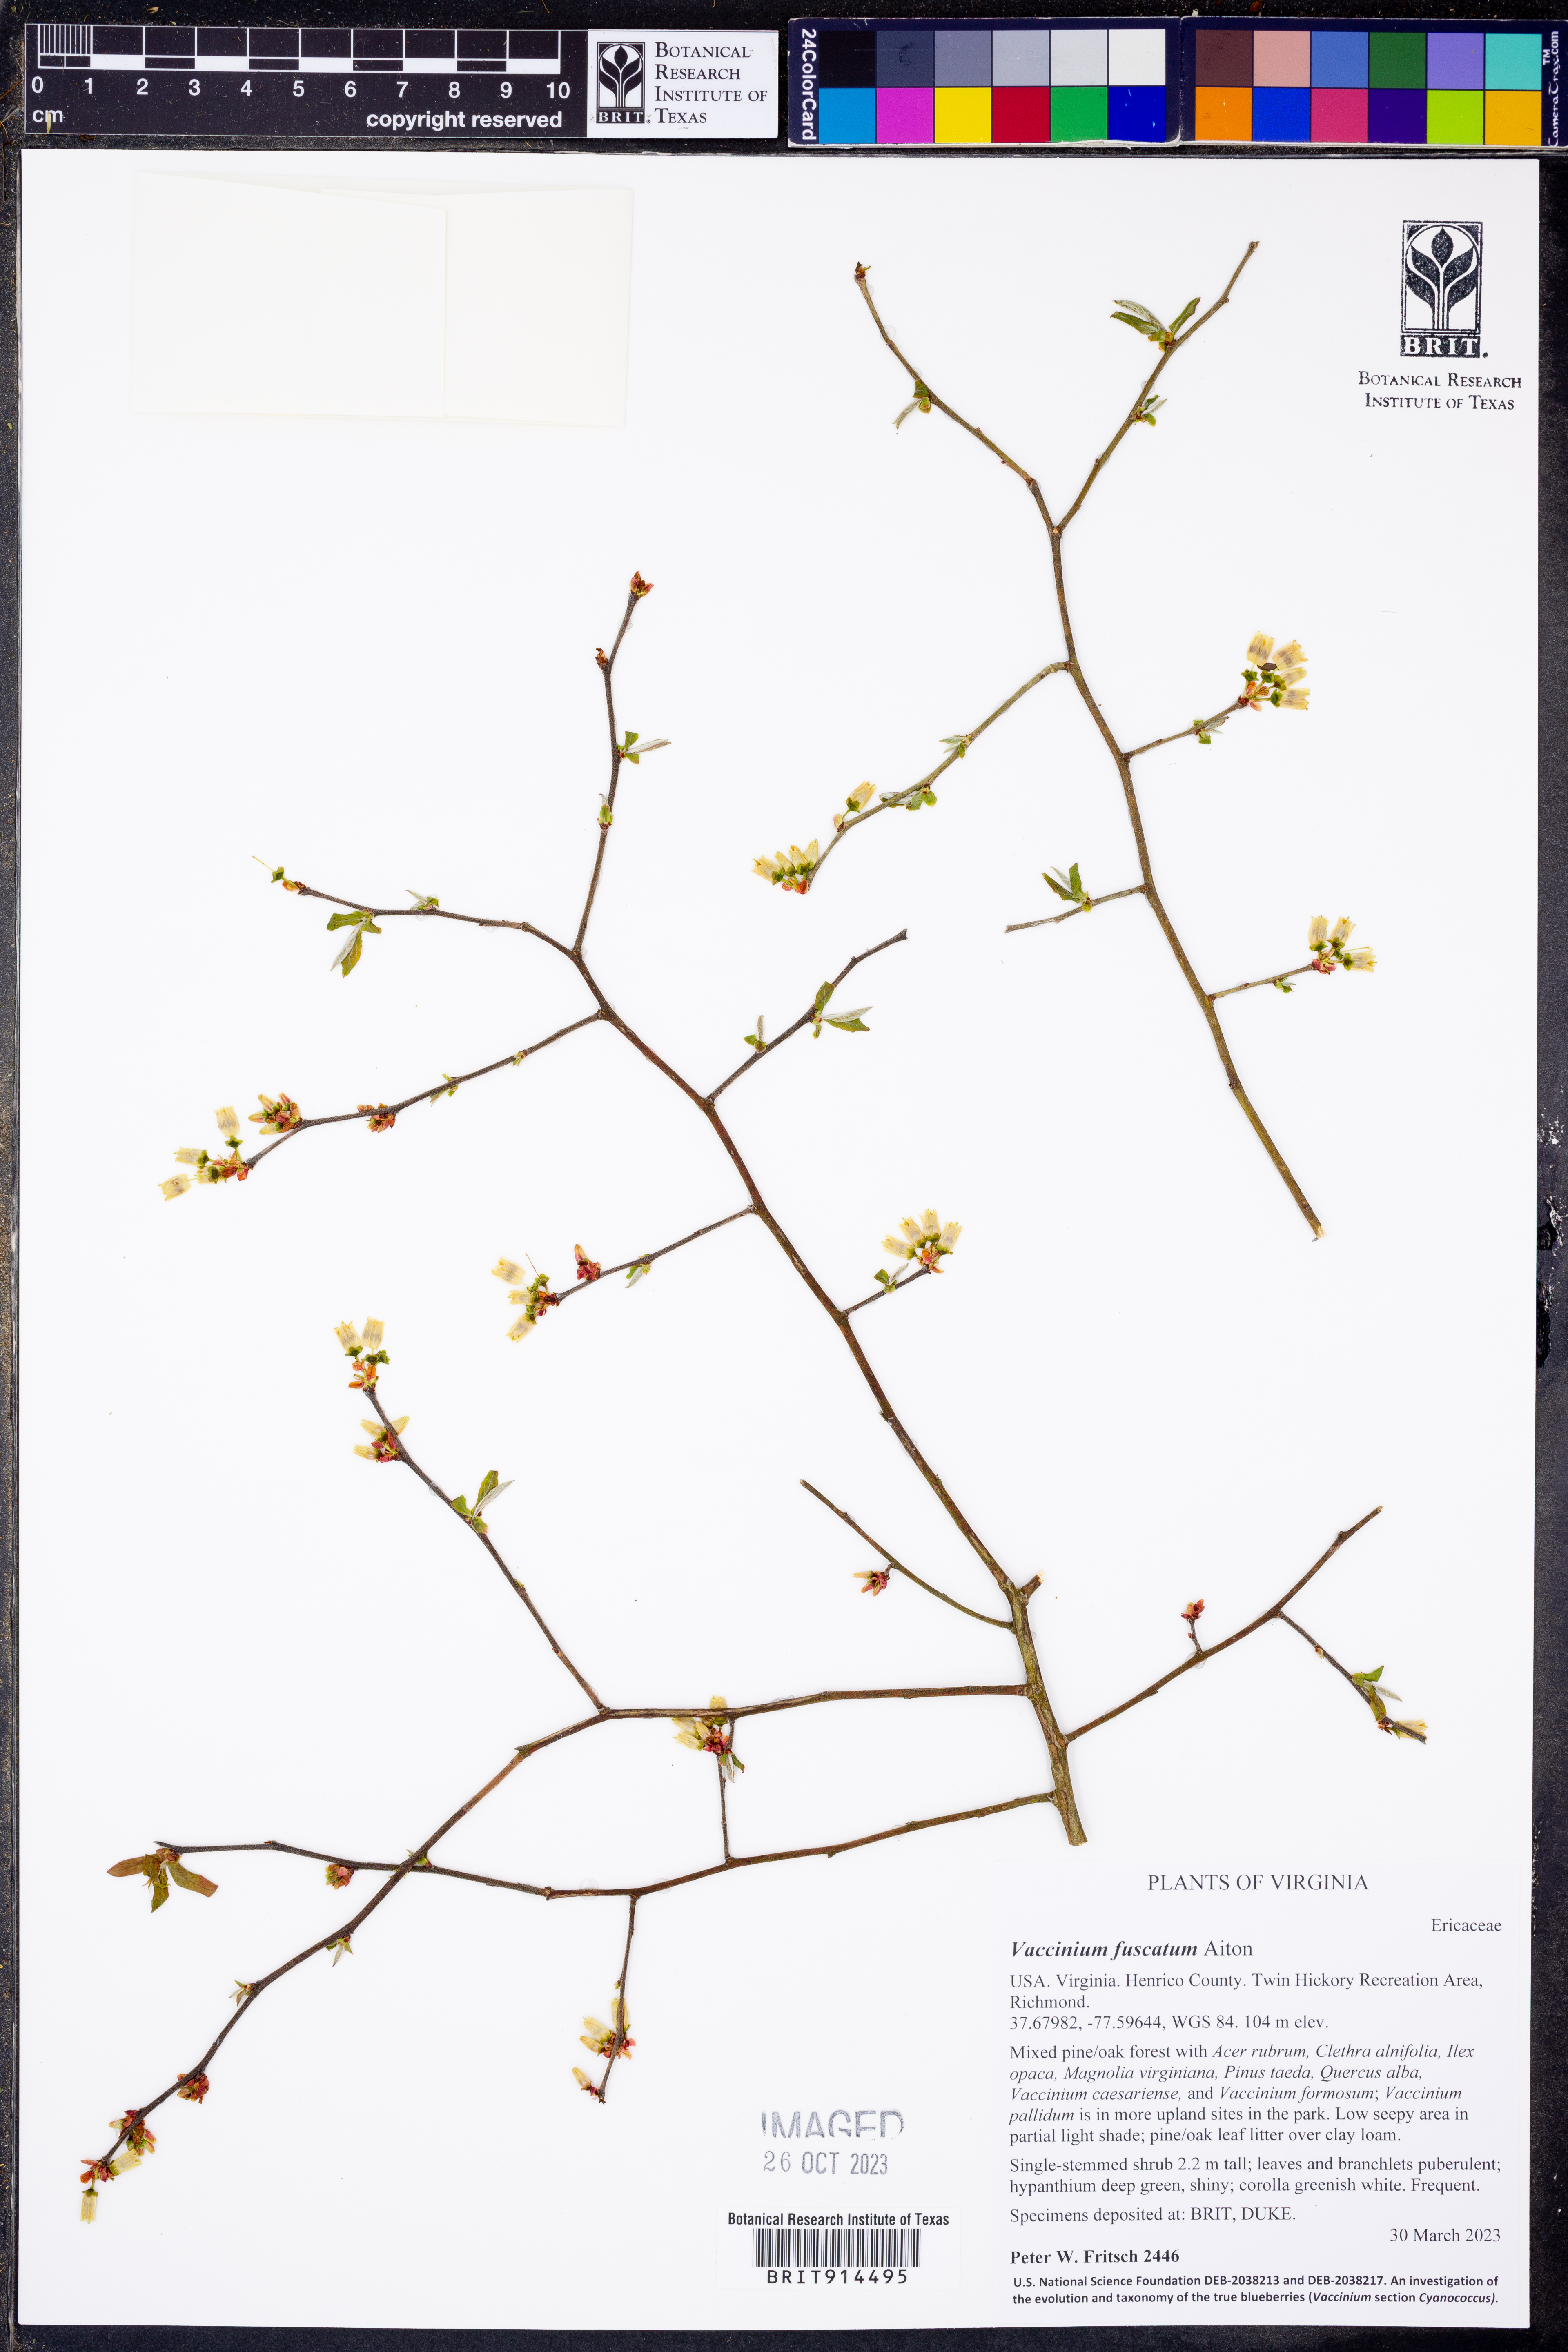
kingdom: Plantae
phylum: Tracheophyta
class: Magnoliopsida
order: Ericales
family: Ericaceae
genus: Vaccinium
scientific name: Vaccinium corymbosum
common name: Blueberry
